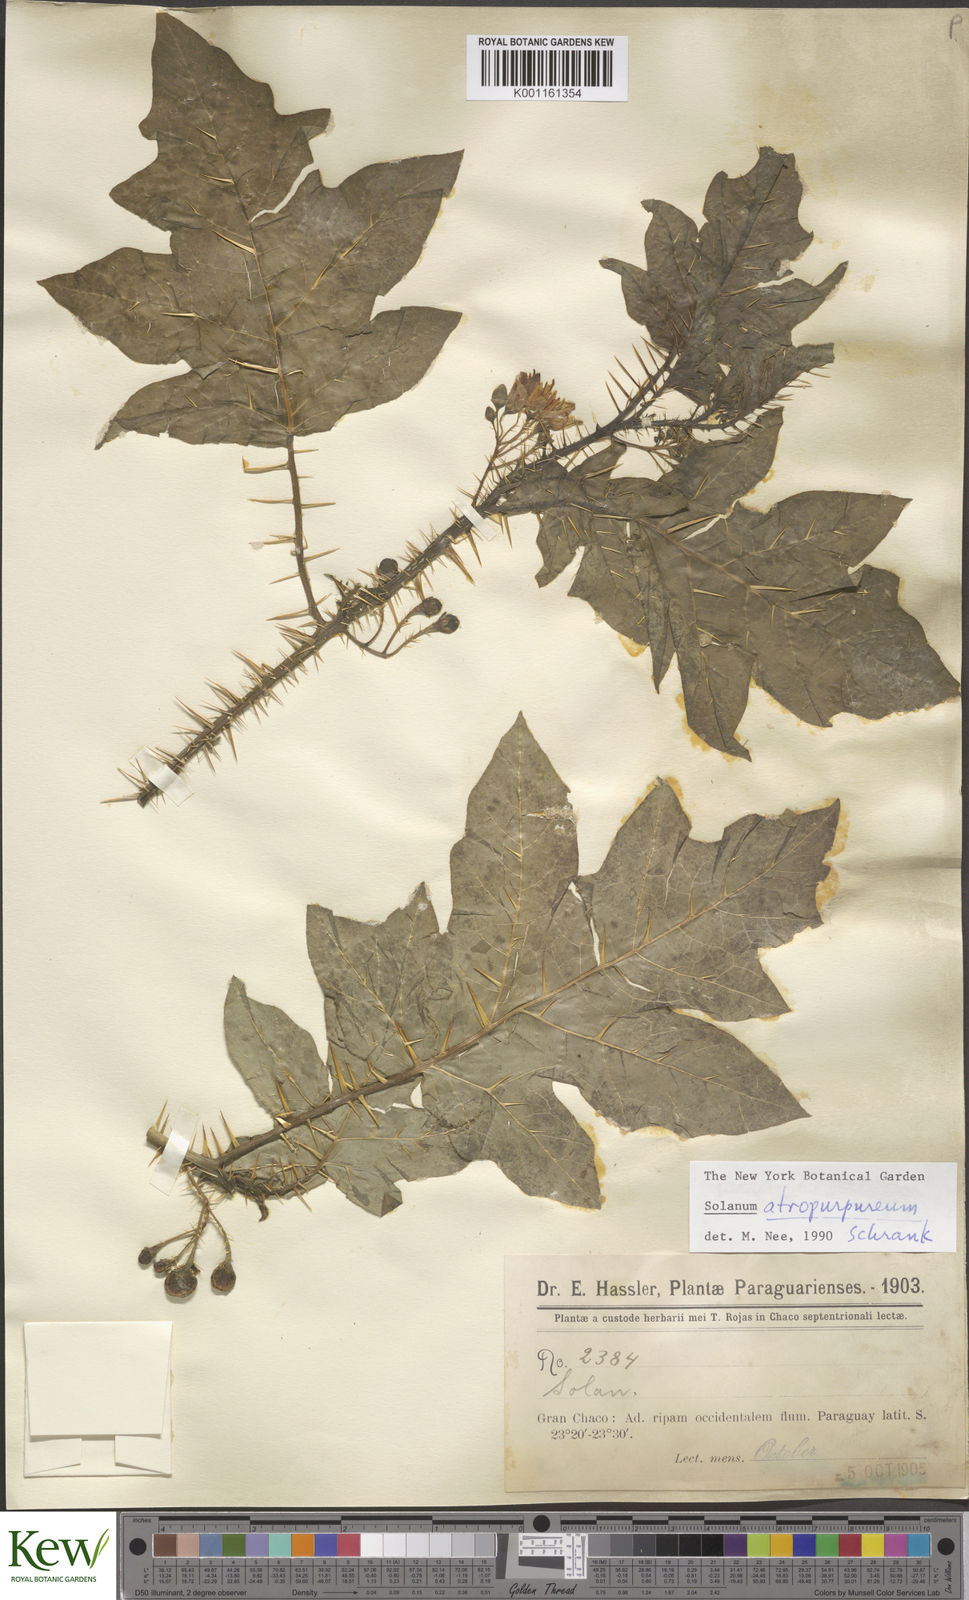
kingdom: Plantae
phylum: Tracheophyta
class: Magnoliopsida
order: Solanales
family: Solanaceae
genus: Solanum
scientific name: Solanum atropurpureum
